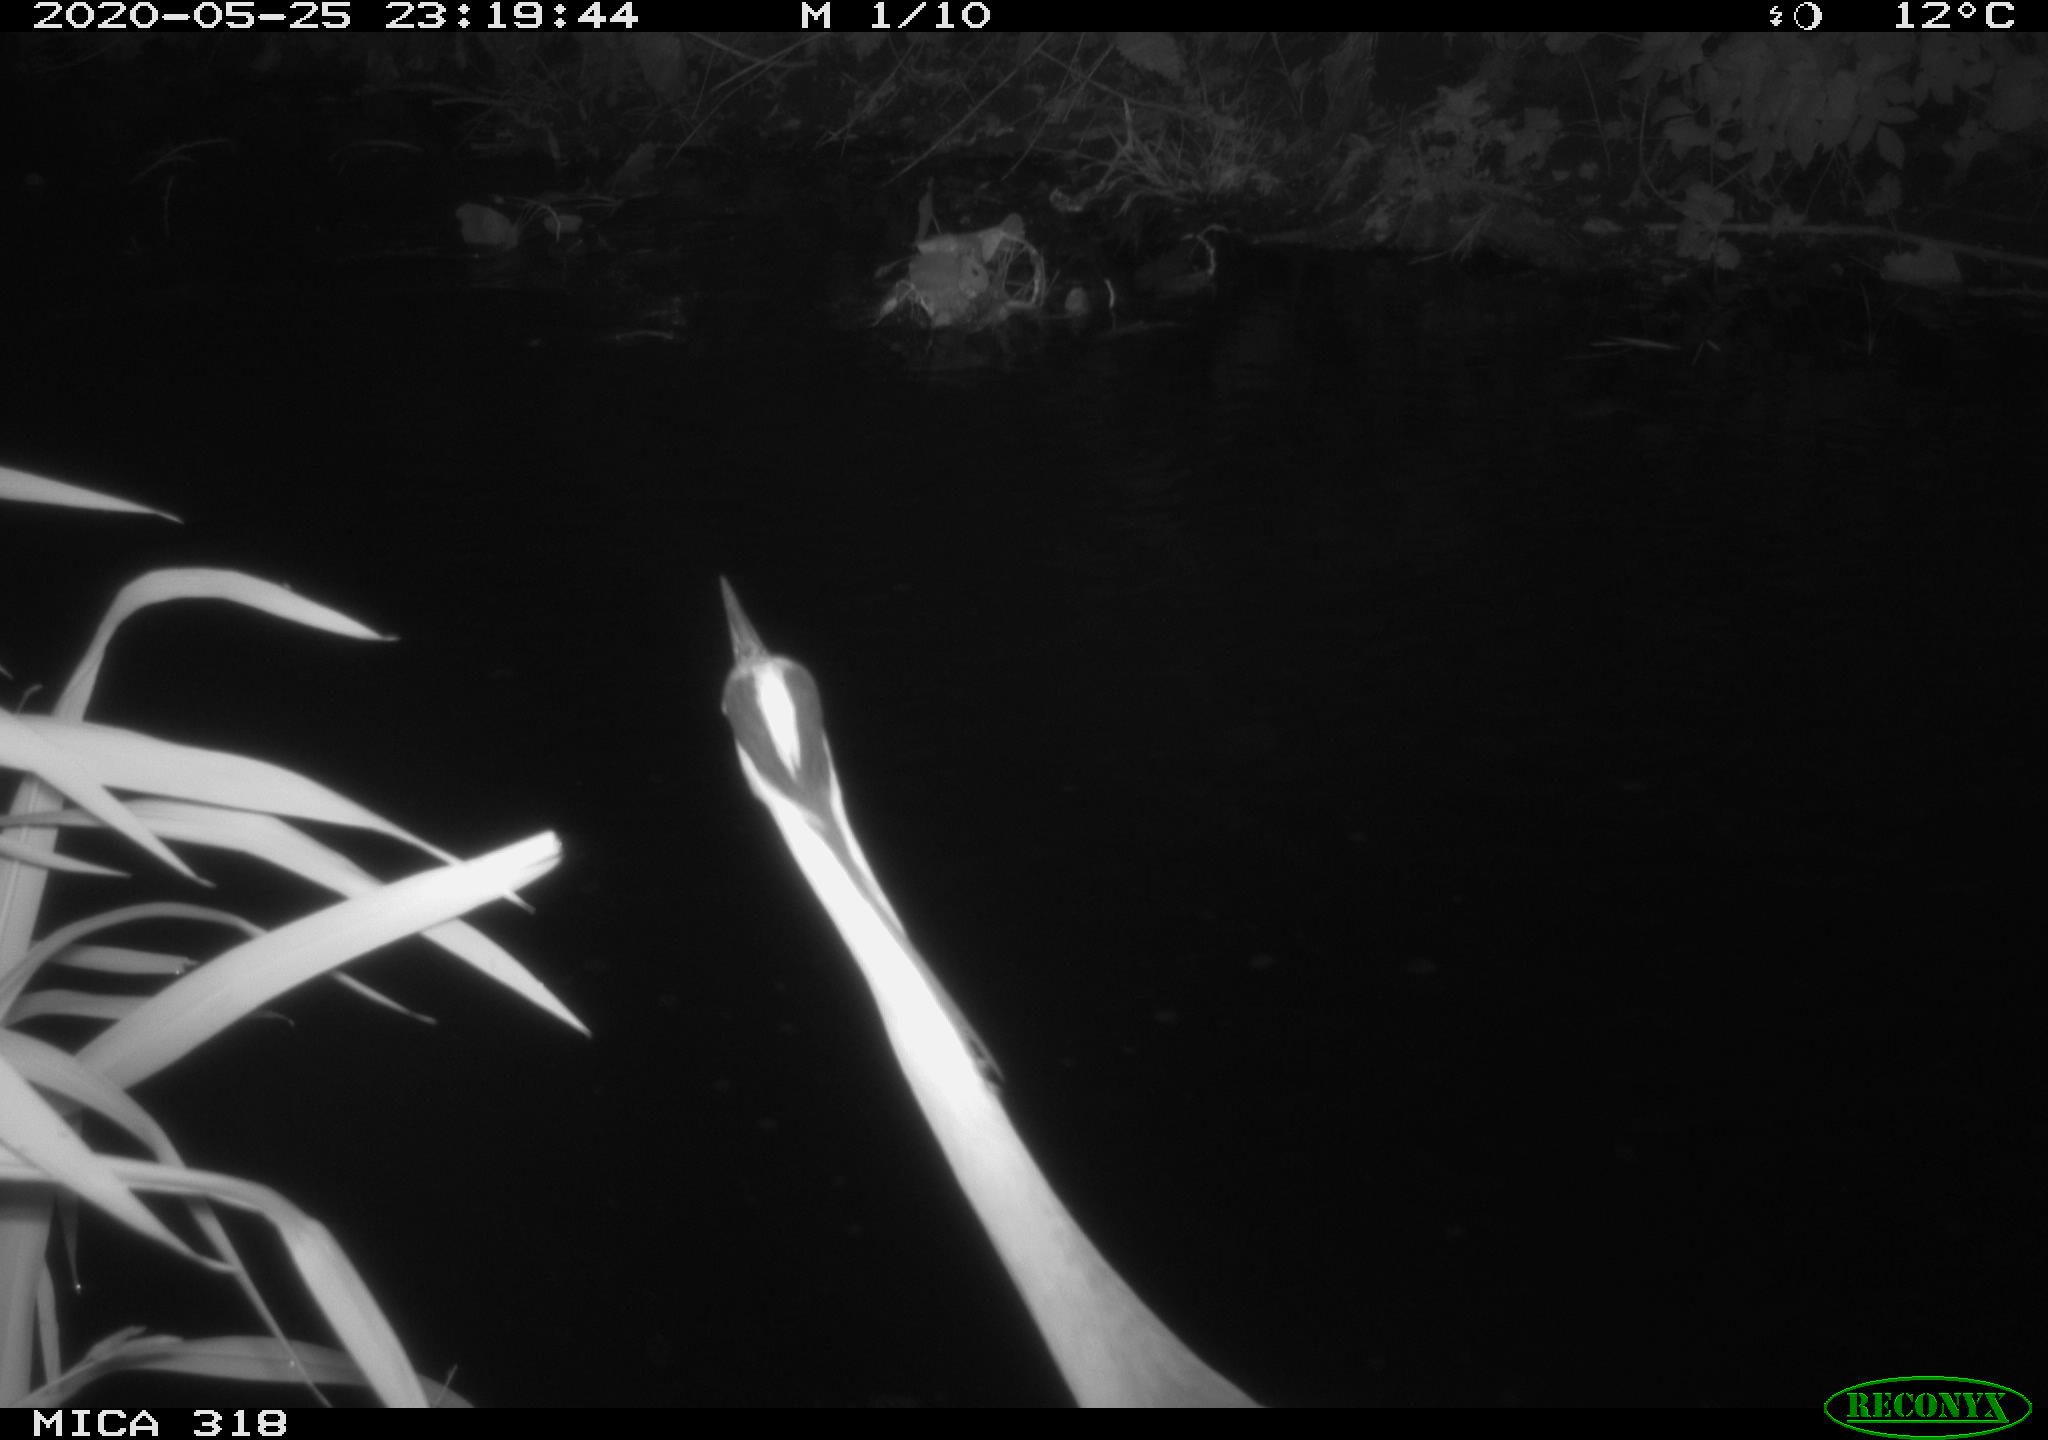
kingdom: Animalia
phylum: Chordata
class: Aves
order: Pelecaniformes
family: Ardeidae
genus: Ardea
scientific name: Ardea cinerea
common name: Grey heron
